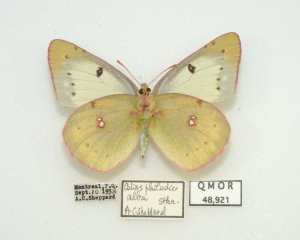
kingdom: Animalia
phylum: Arthropoda
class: Insecta
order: Lepidoptera
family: Pieridae
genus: Colias
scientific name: Colias philodice
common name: Clouded Sulphur
